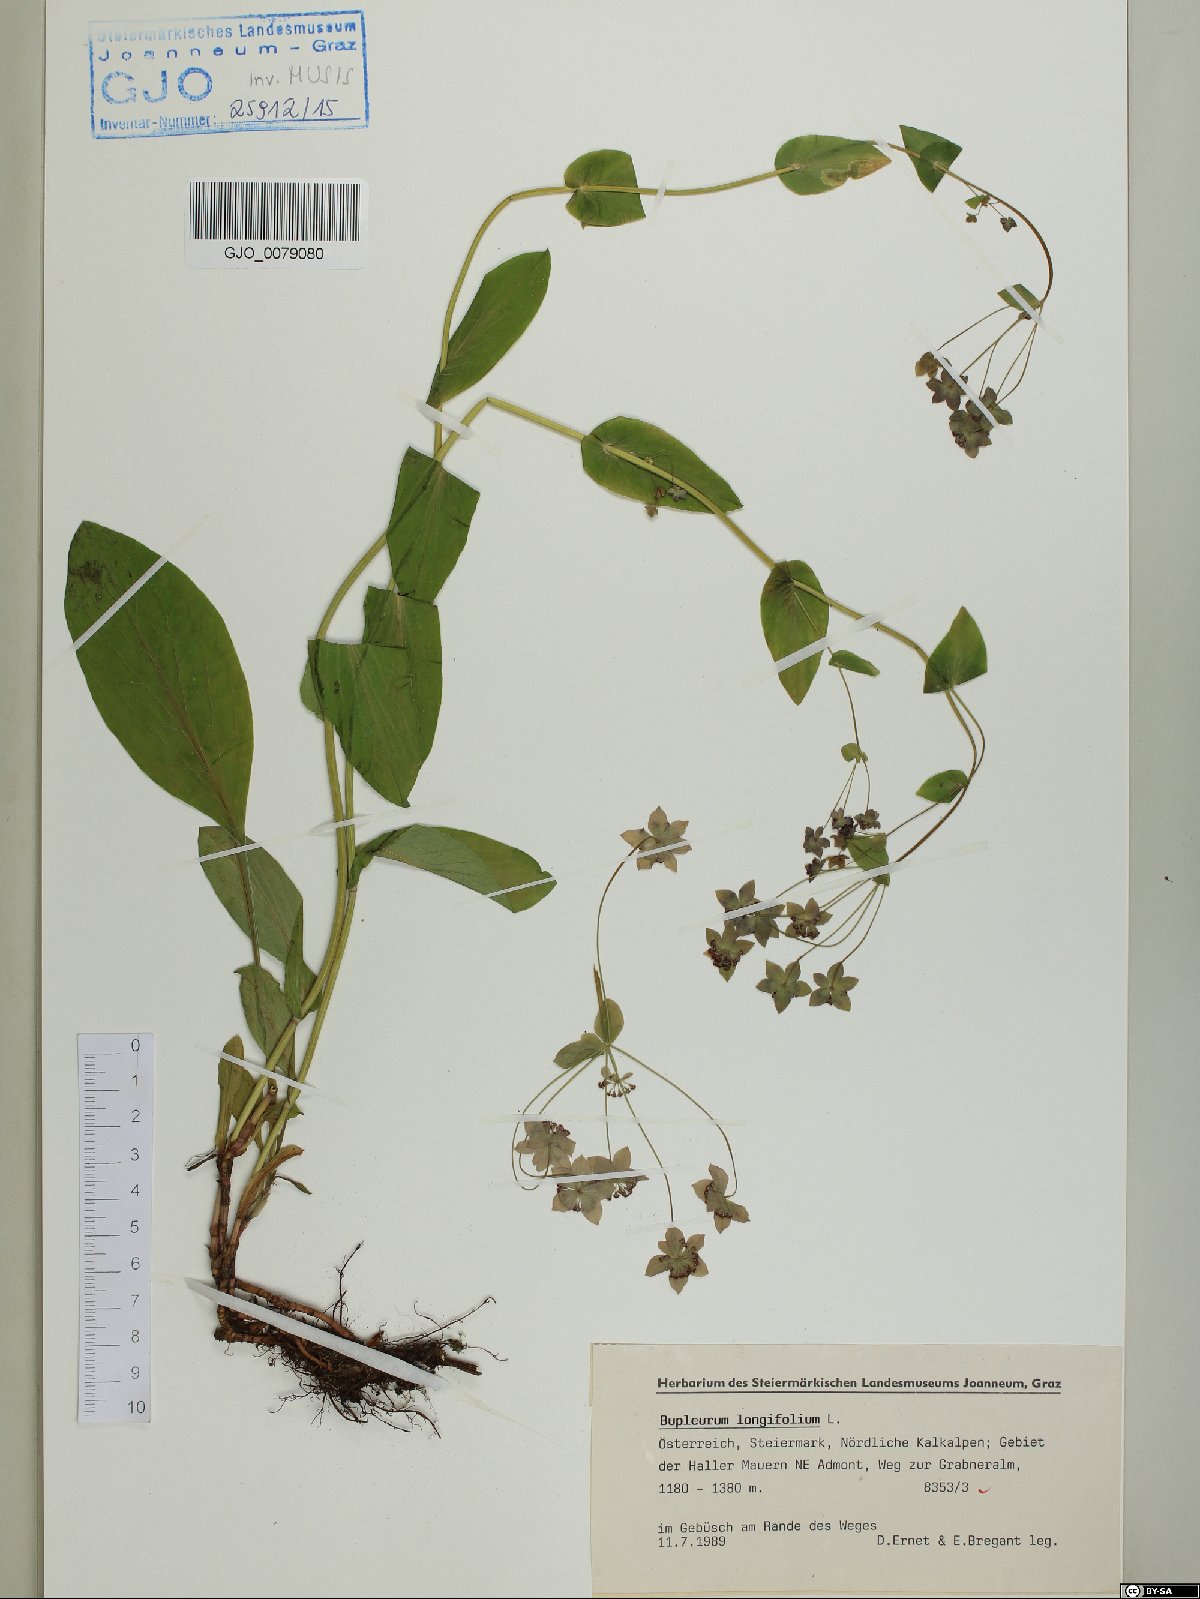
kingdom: Plantae
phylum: Tracheophyta
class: Magnoliopsida
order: Apiales
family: Apiaceae
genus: Bupleurum
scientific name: Bupleurum longifolium
